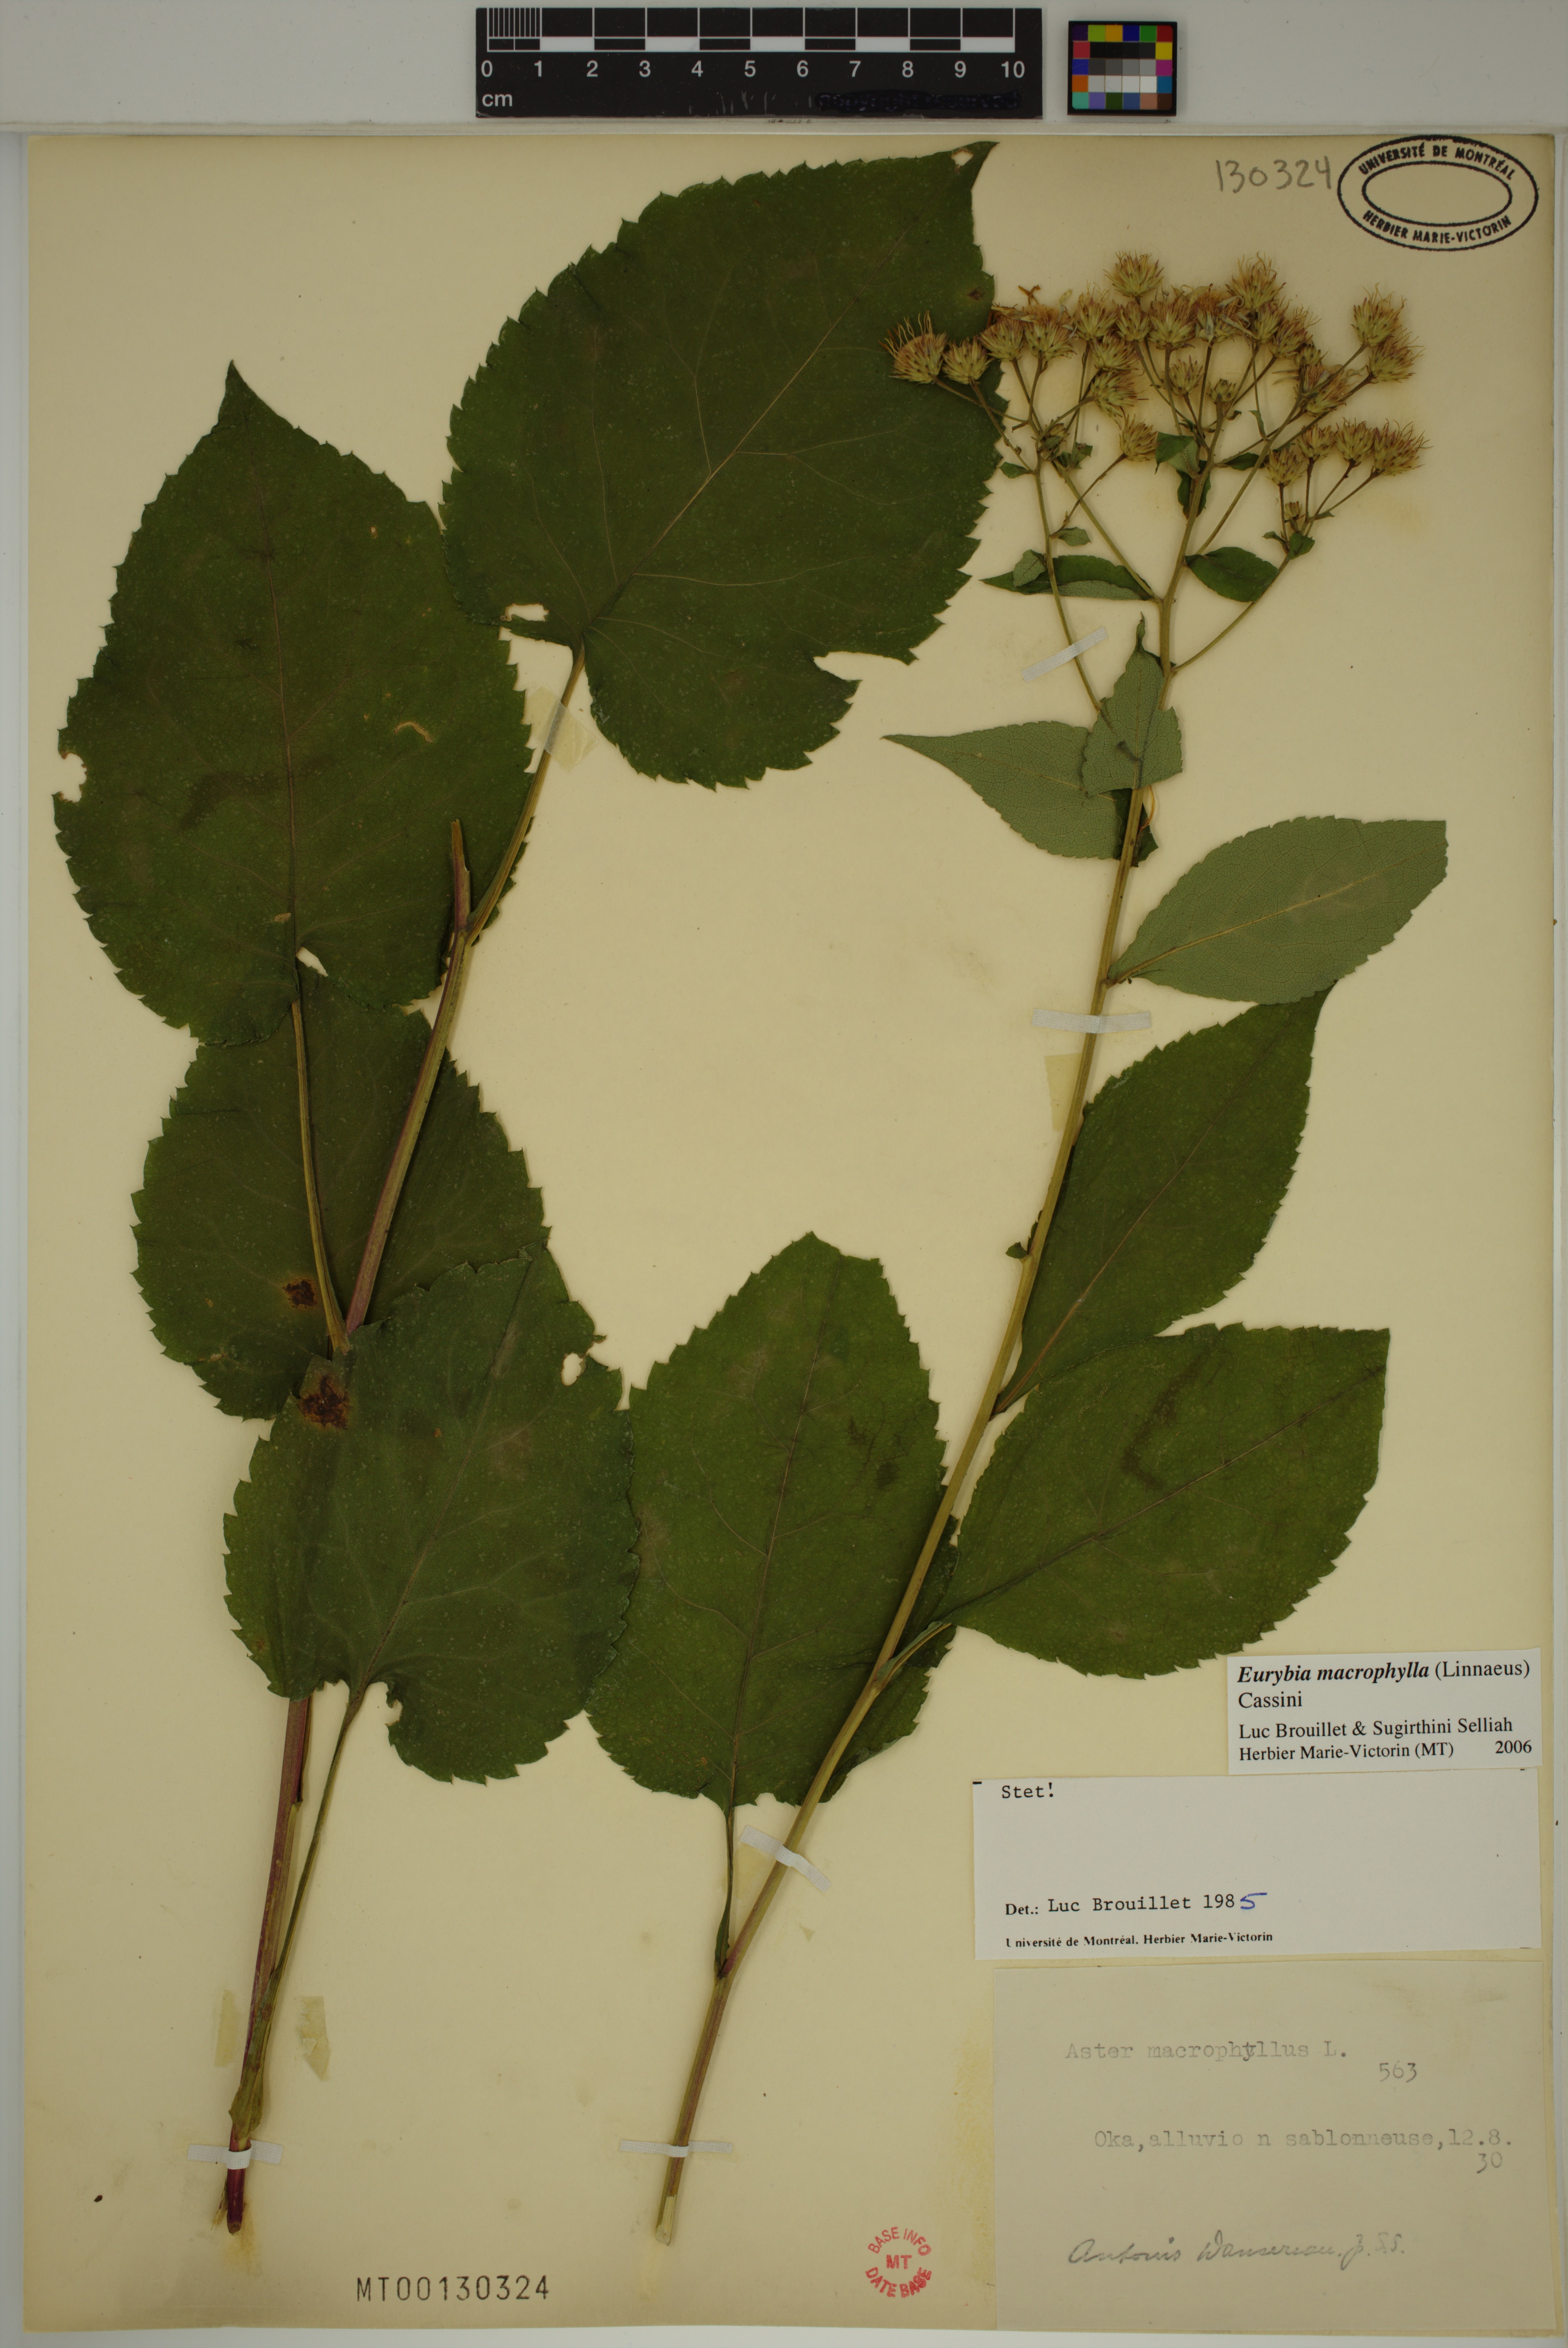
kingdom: Plantae
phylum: Tracheophyta
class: Magnoliopsida
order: Asterales
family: Asteraceae
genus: Eurybia
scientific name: Eurybia macrophylla
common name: Big-leaved aster
